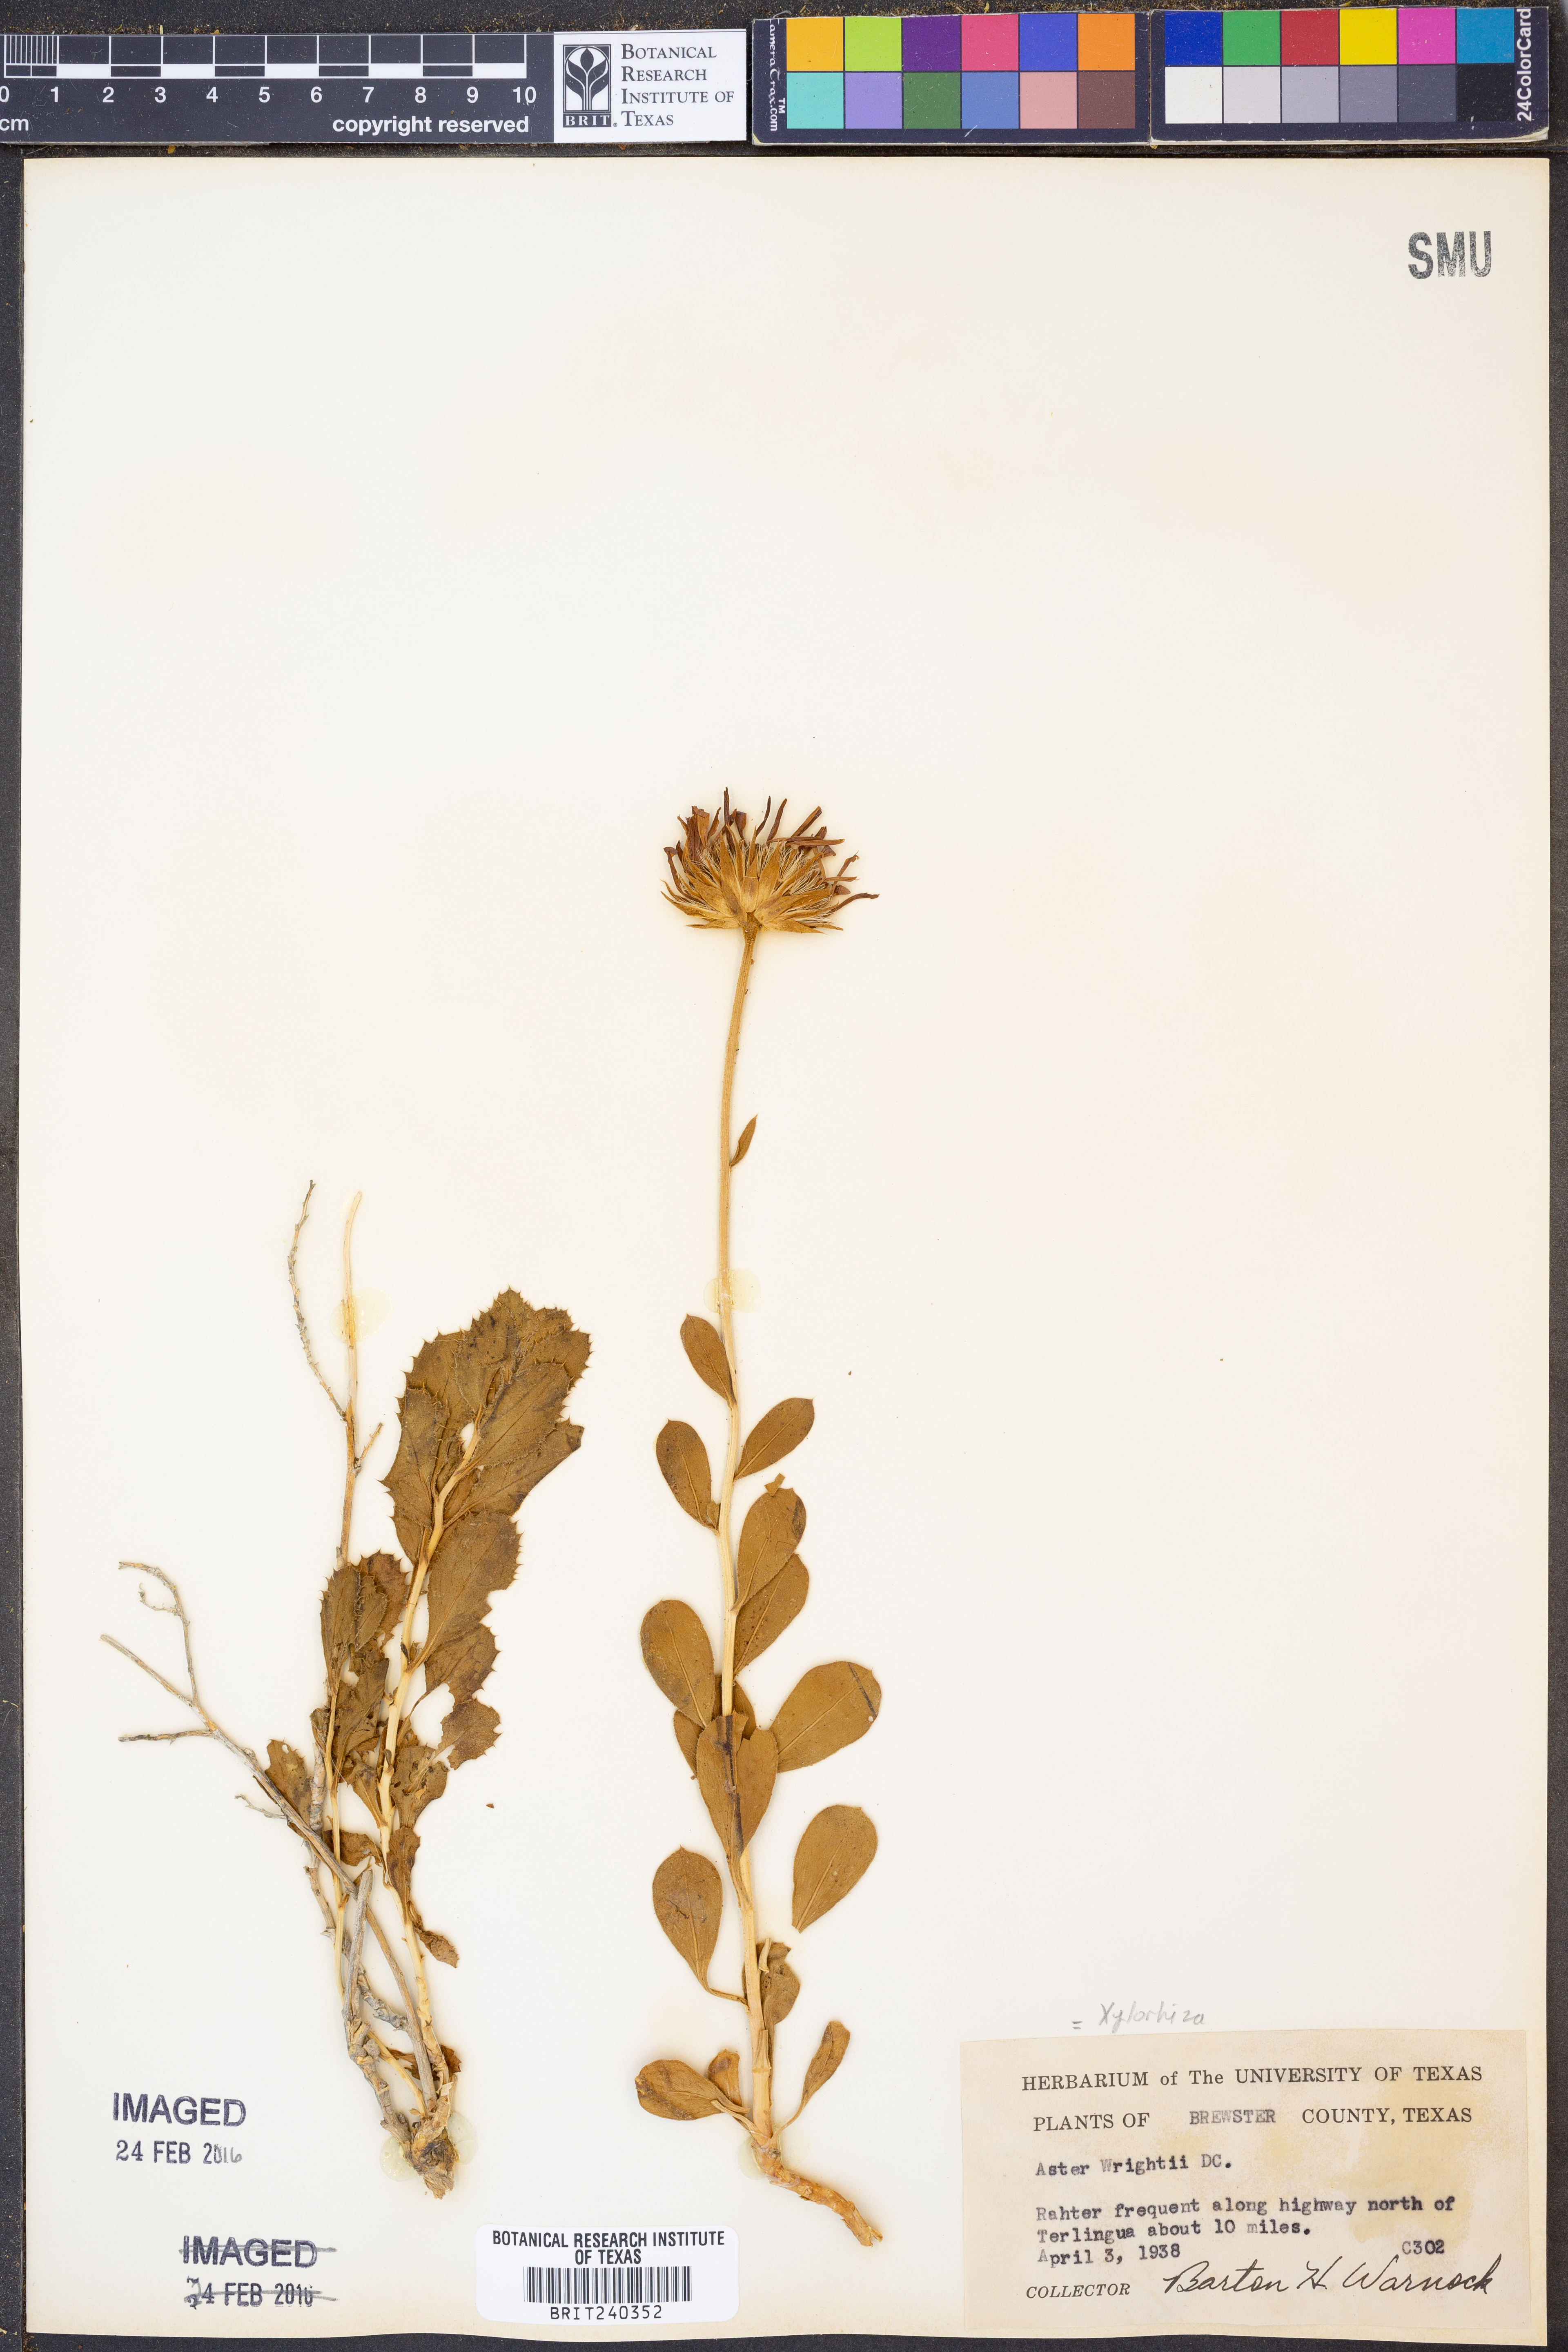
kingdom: Plantae
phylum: Tracheophyta
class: Magnoliopsida
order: Asterales
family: Asteraceae
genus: Xylorhiza
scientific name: Xylorhiza wrightii
